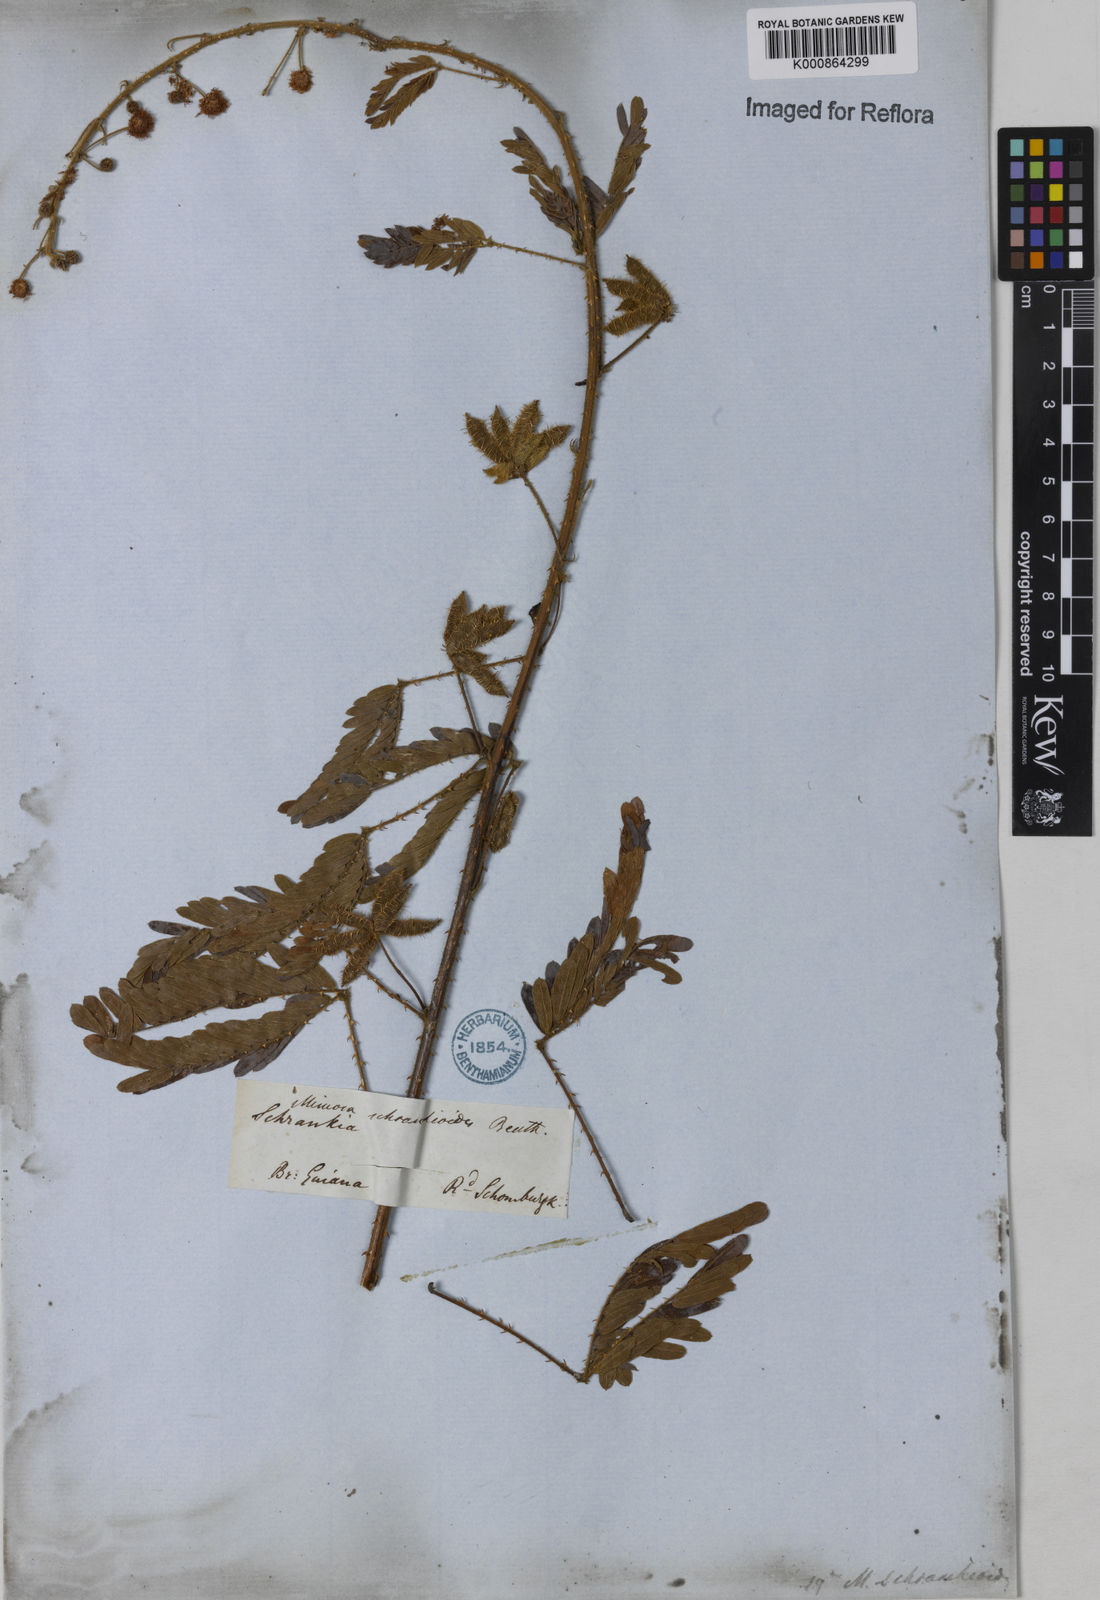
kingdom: Plantae
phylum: Tracheophyta
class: Magnoliopsida
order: Fabales
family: Fabaceae
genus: Mimosa
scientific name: Mimosa schrankioides
